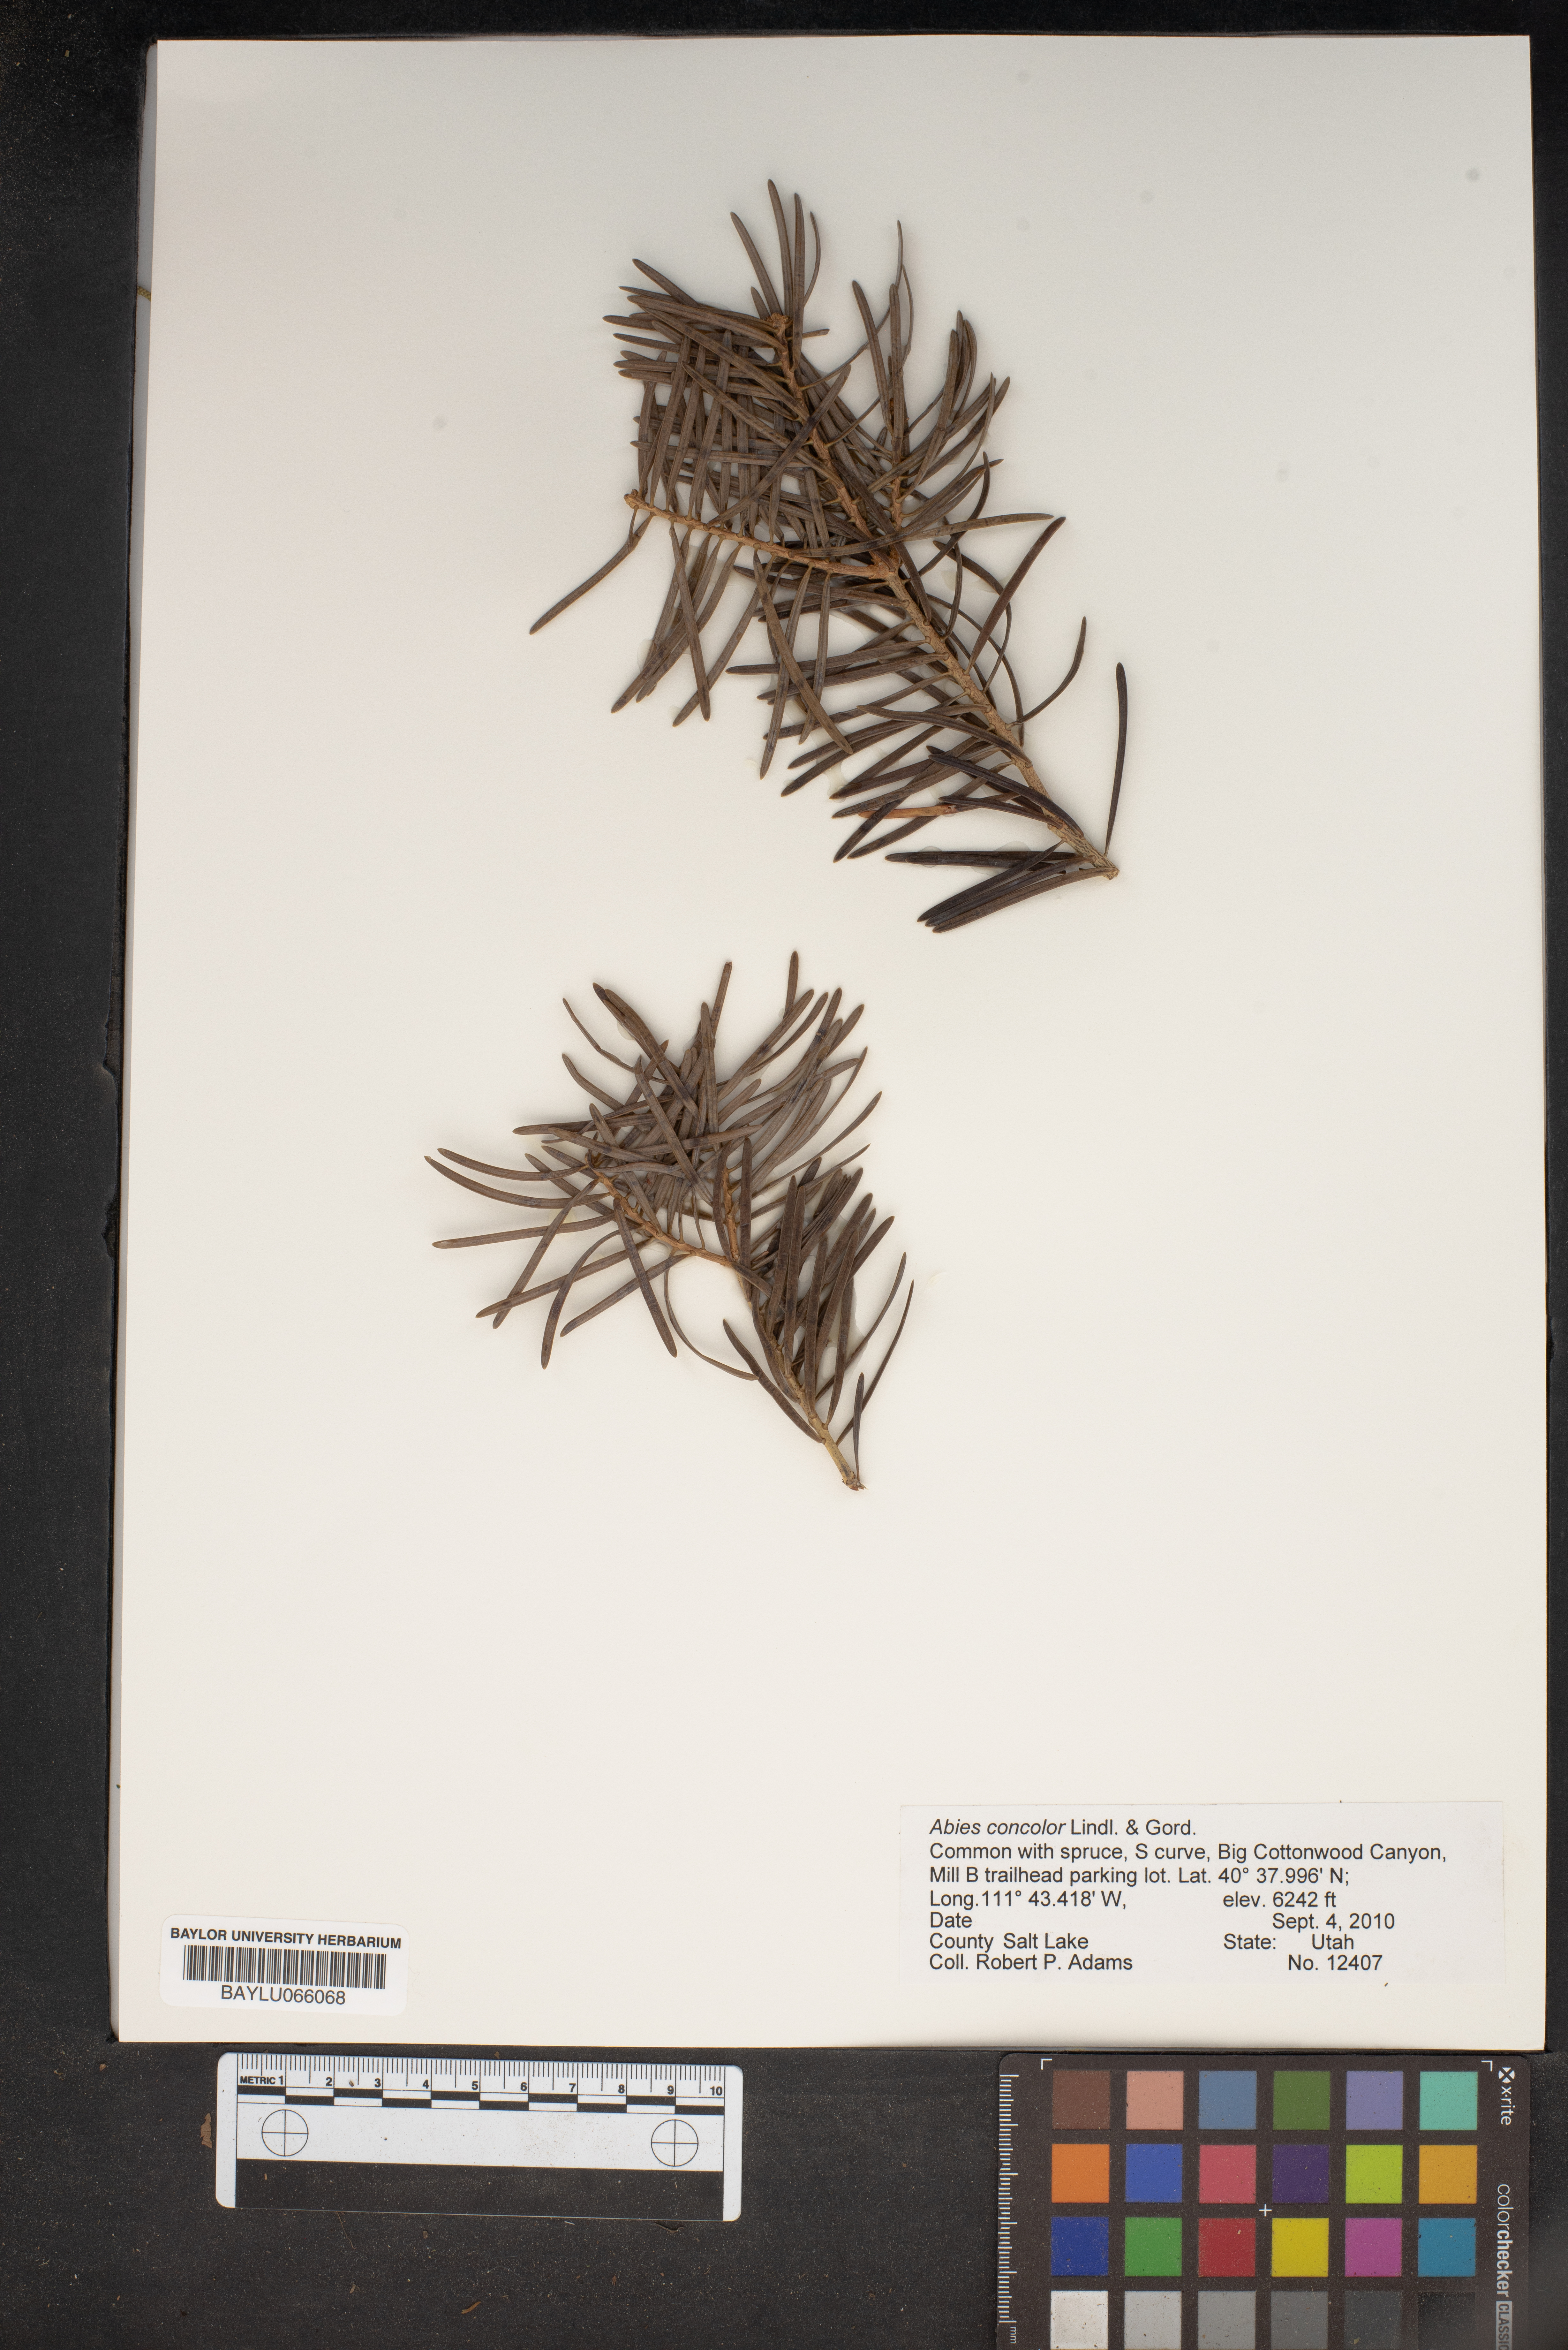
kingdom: Plantae
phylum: Tracheophyta
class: Pinopsida
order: Pinales
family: Pinaceae
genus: Abies
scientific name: Abies concolor
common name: Colorado fir
